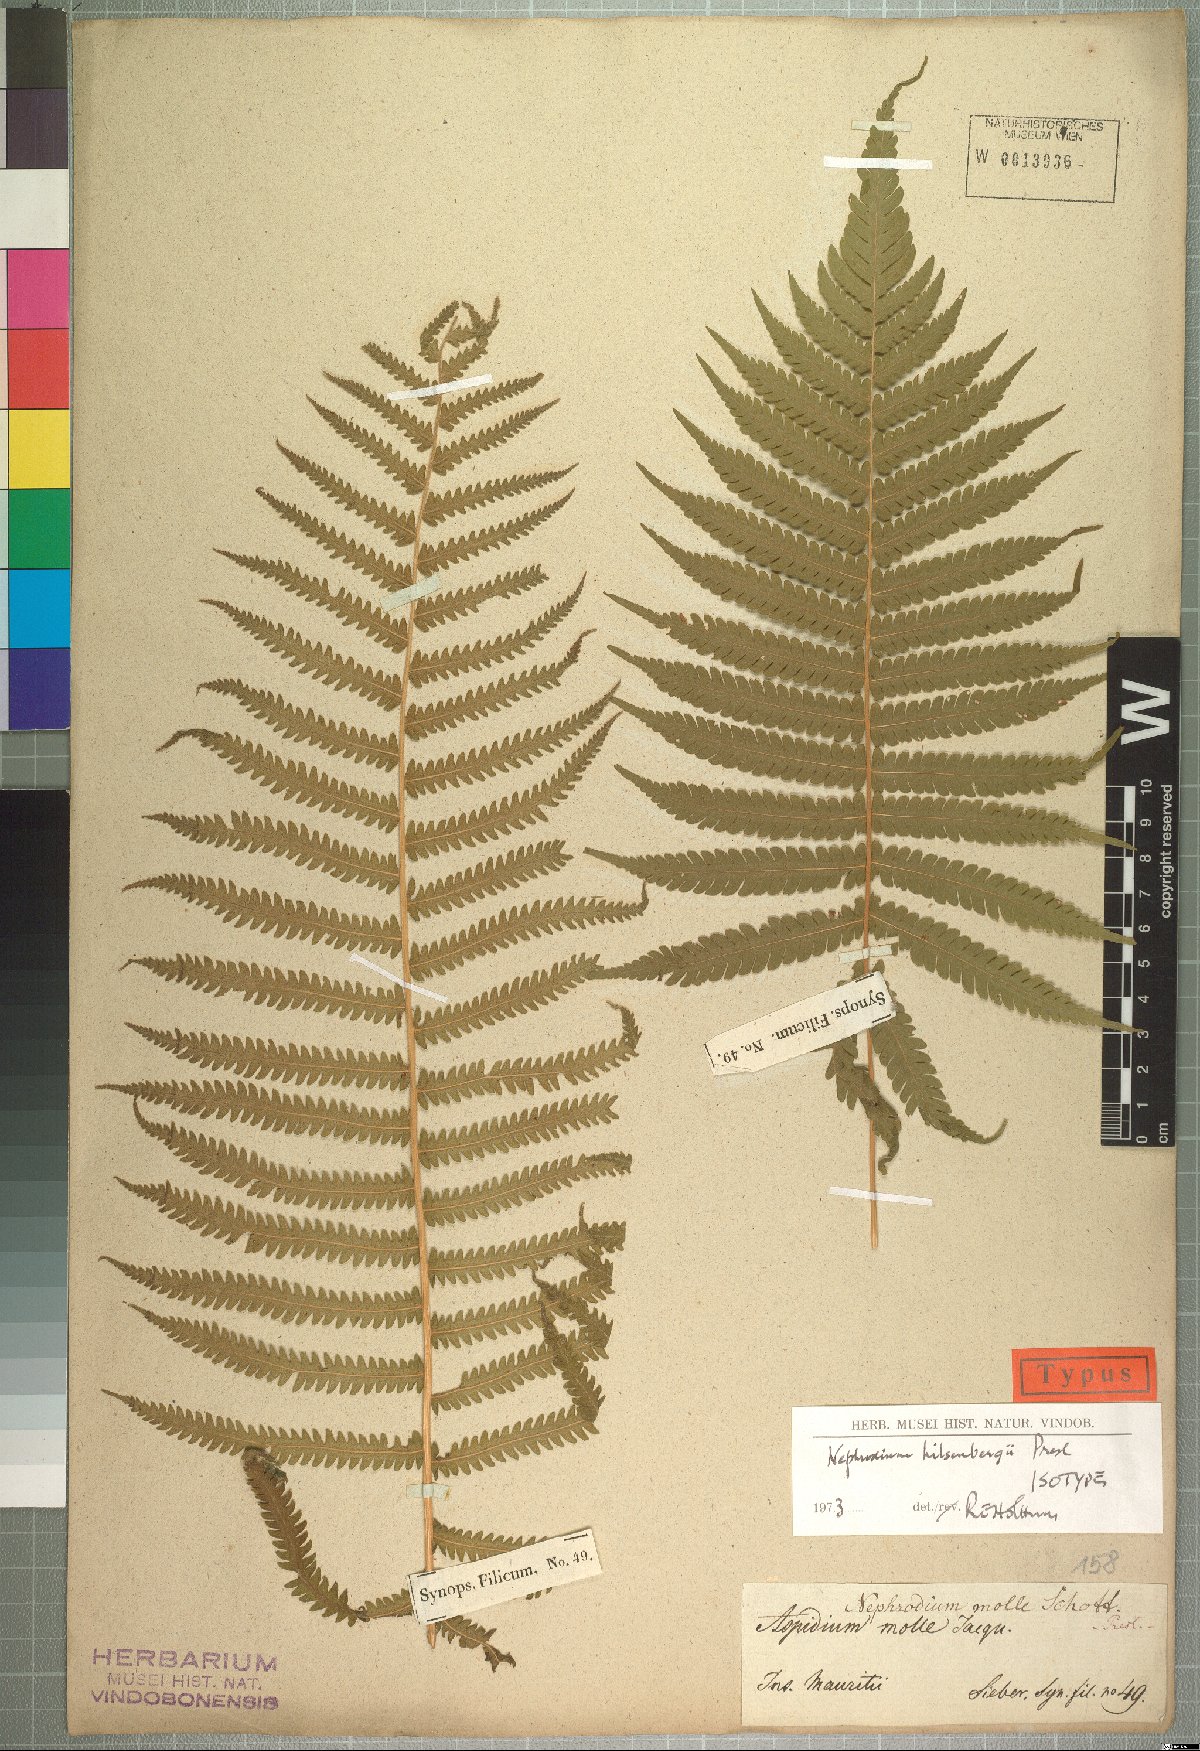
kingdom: Plantae
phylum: Tracheophyta
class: Polypodiopsida
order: Polypodiales
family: Thelypteridaceae
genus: Christella
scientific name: Christella hispidula
